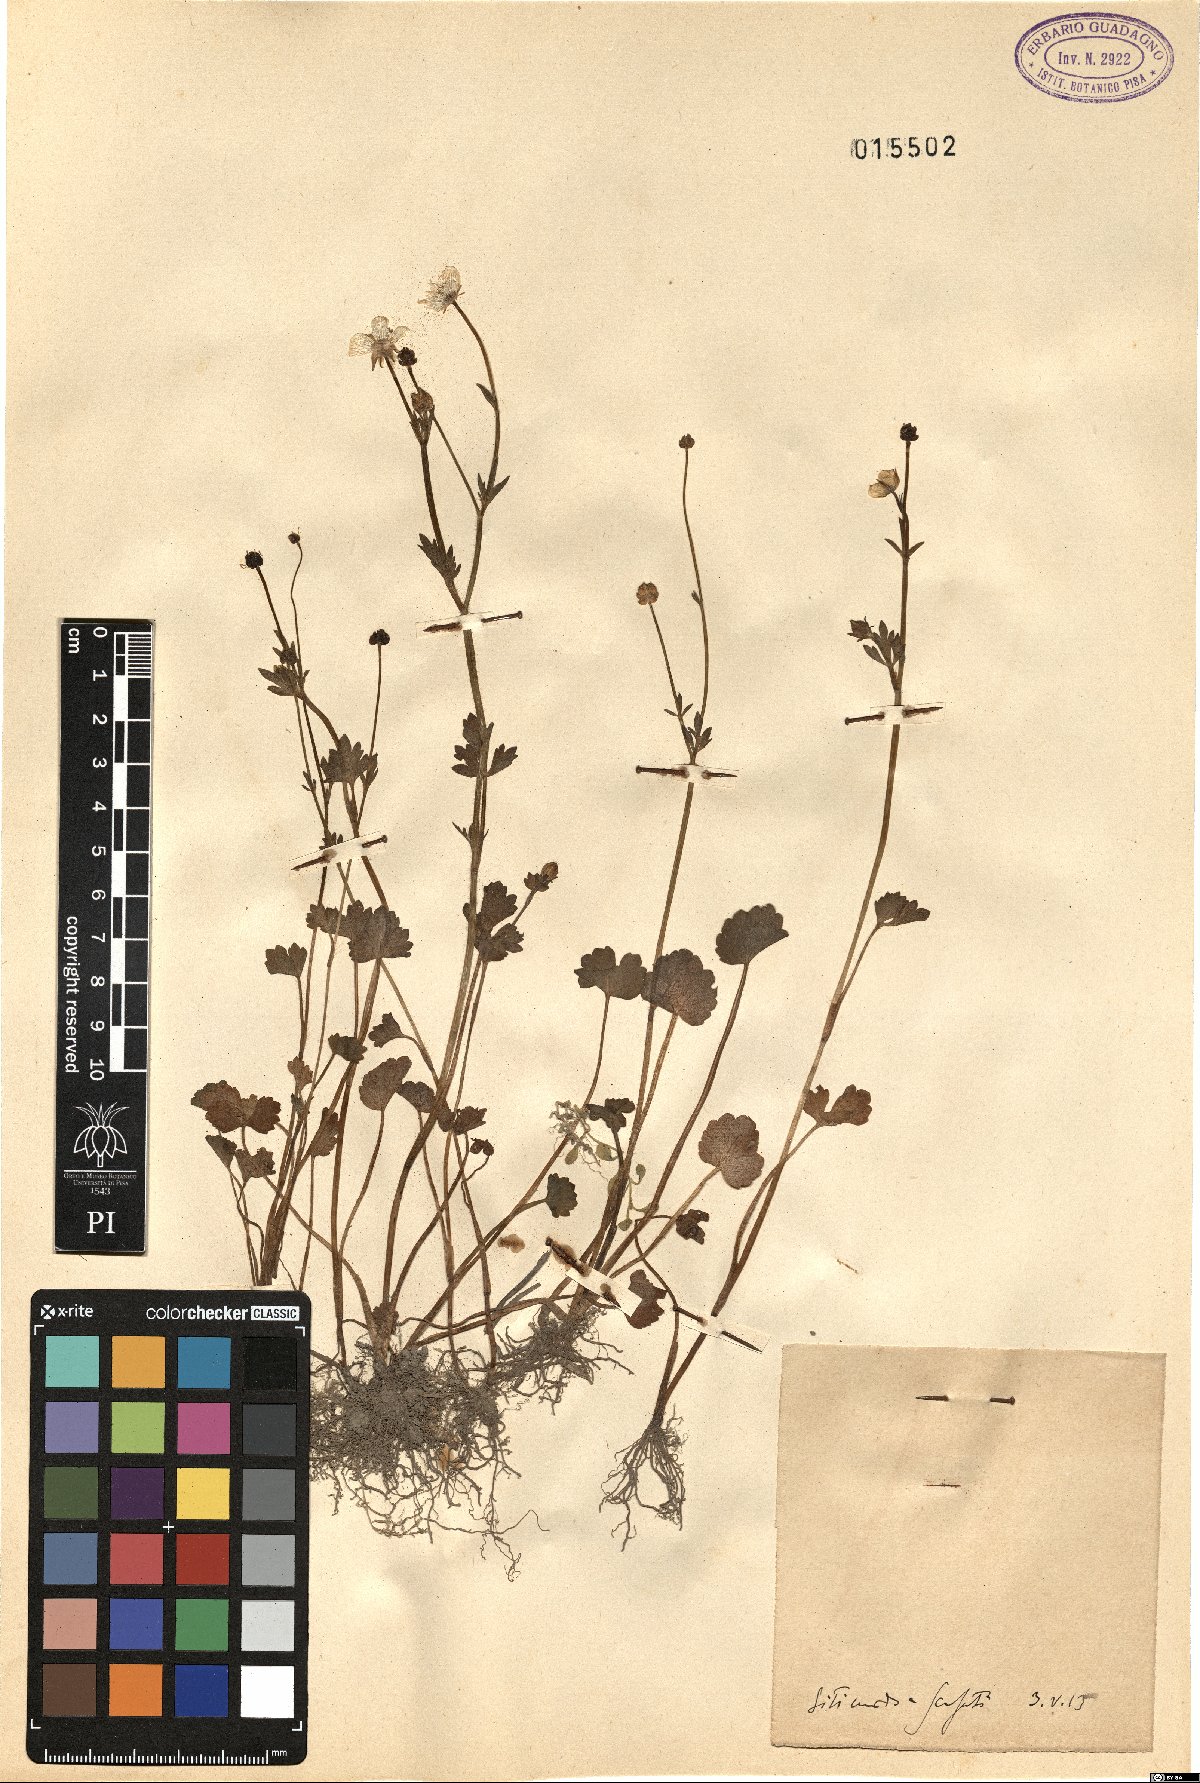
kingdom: Plantae
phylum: Tracheophyta
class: Magnoliopsida
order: Ranunculales
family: Ranunculaceae
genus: Ranunculus
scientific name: Ranunculus
